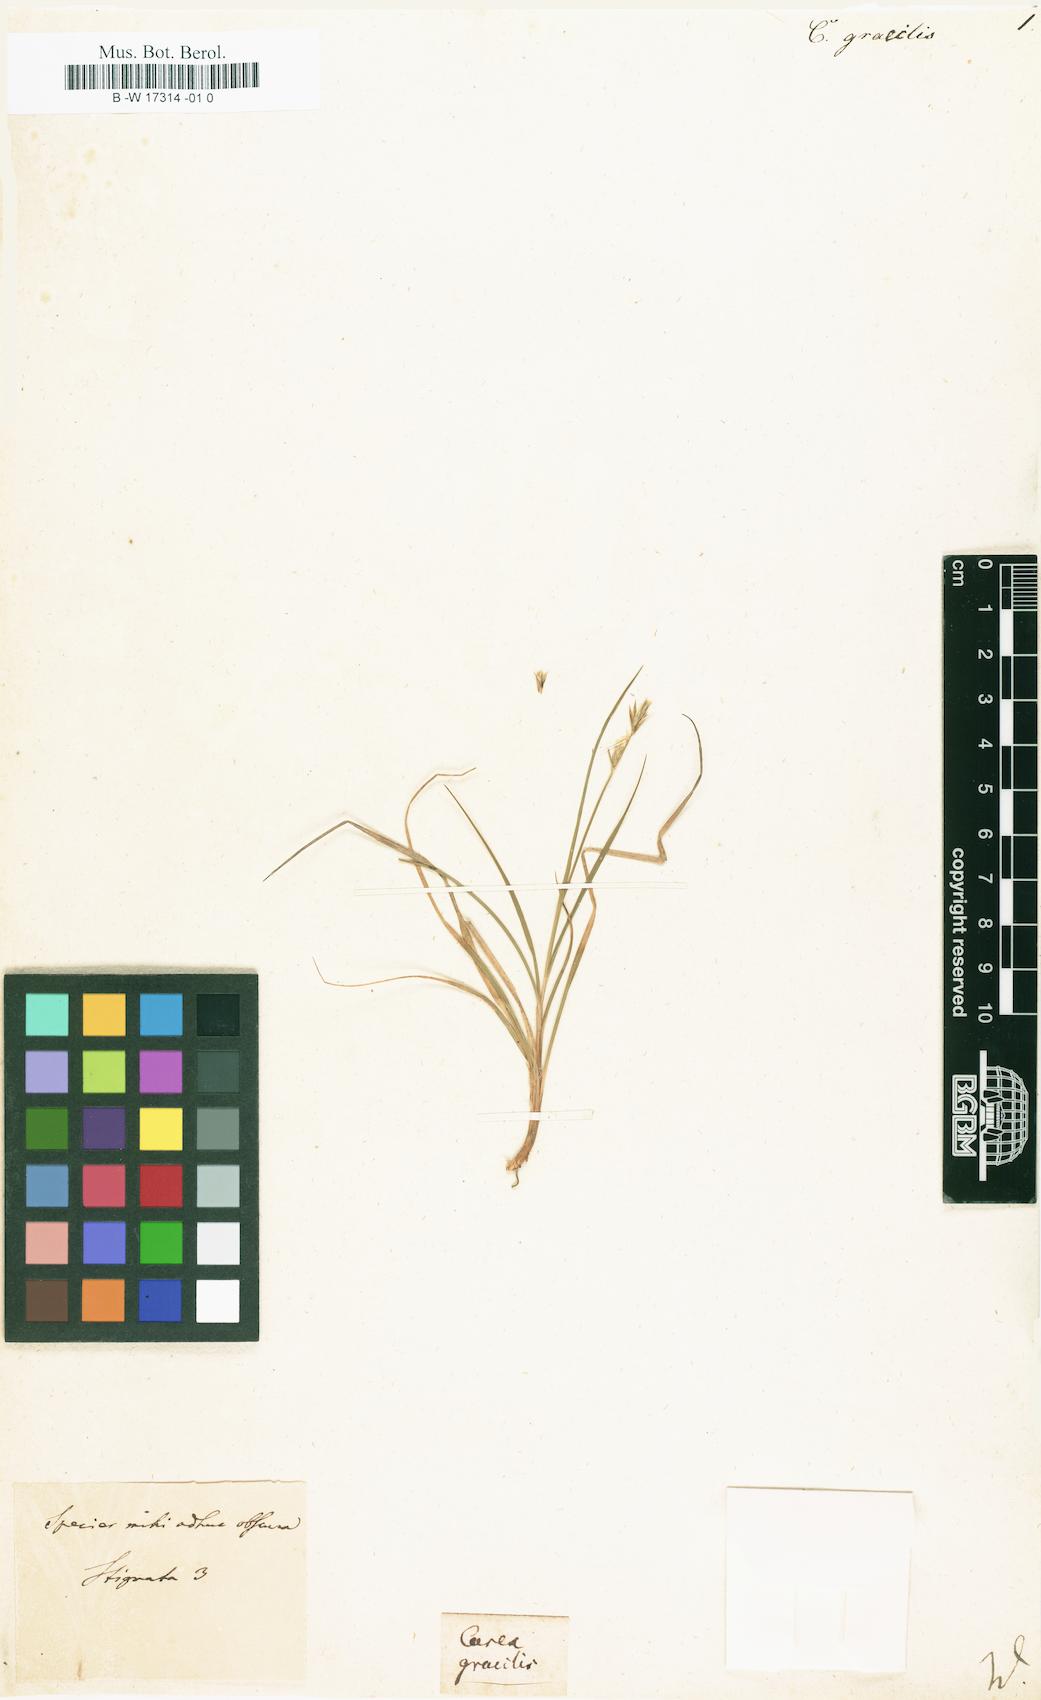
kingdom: Plantae
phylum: Tracheophyta
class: Liliopsida
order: Poales
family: Cyperaceae
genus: Carex
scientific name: Carex acuta
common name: Slender tufted-sedge
